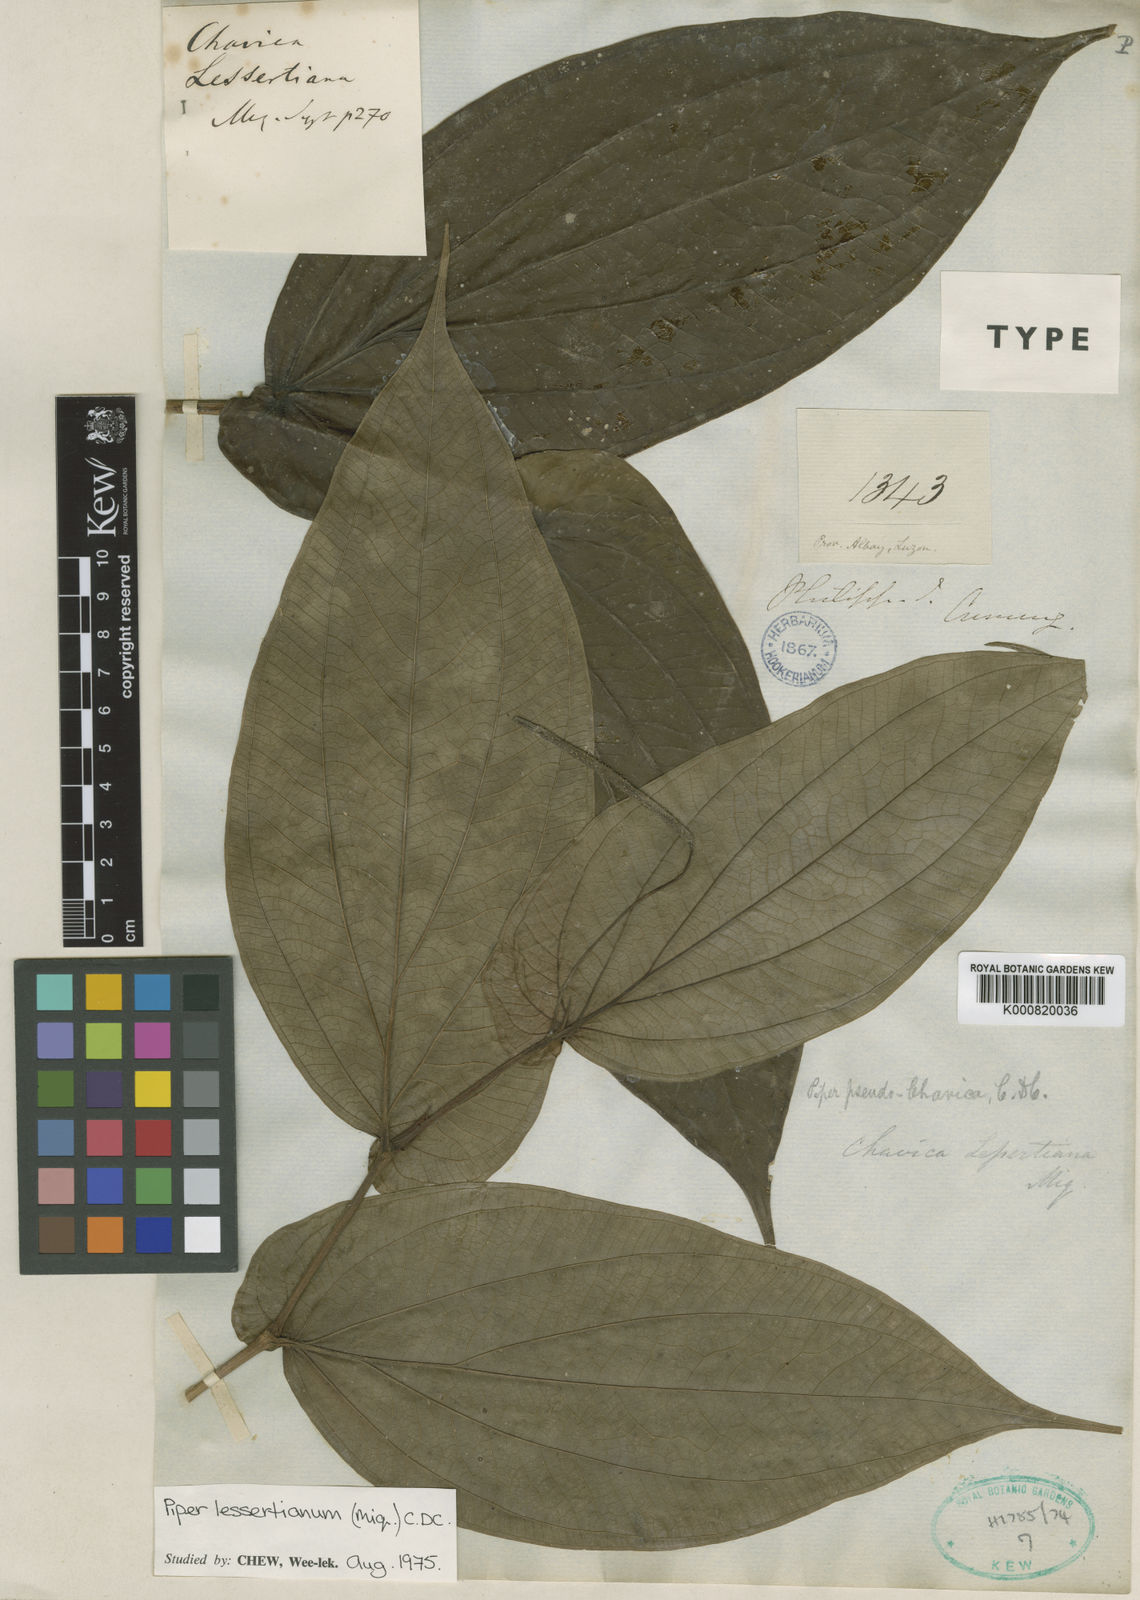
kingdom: Plantae
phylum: Tracheophyta
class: Magnoliopsida
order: Piperales
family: Piperaceae
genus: Piper
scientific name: Piper lessertianum
